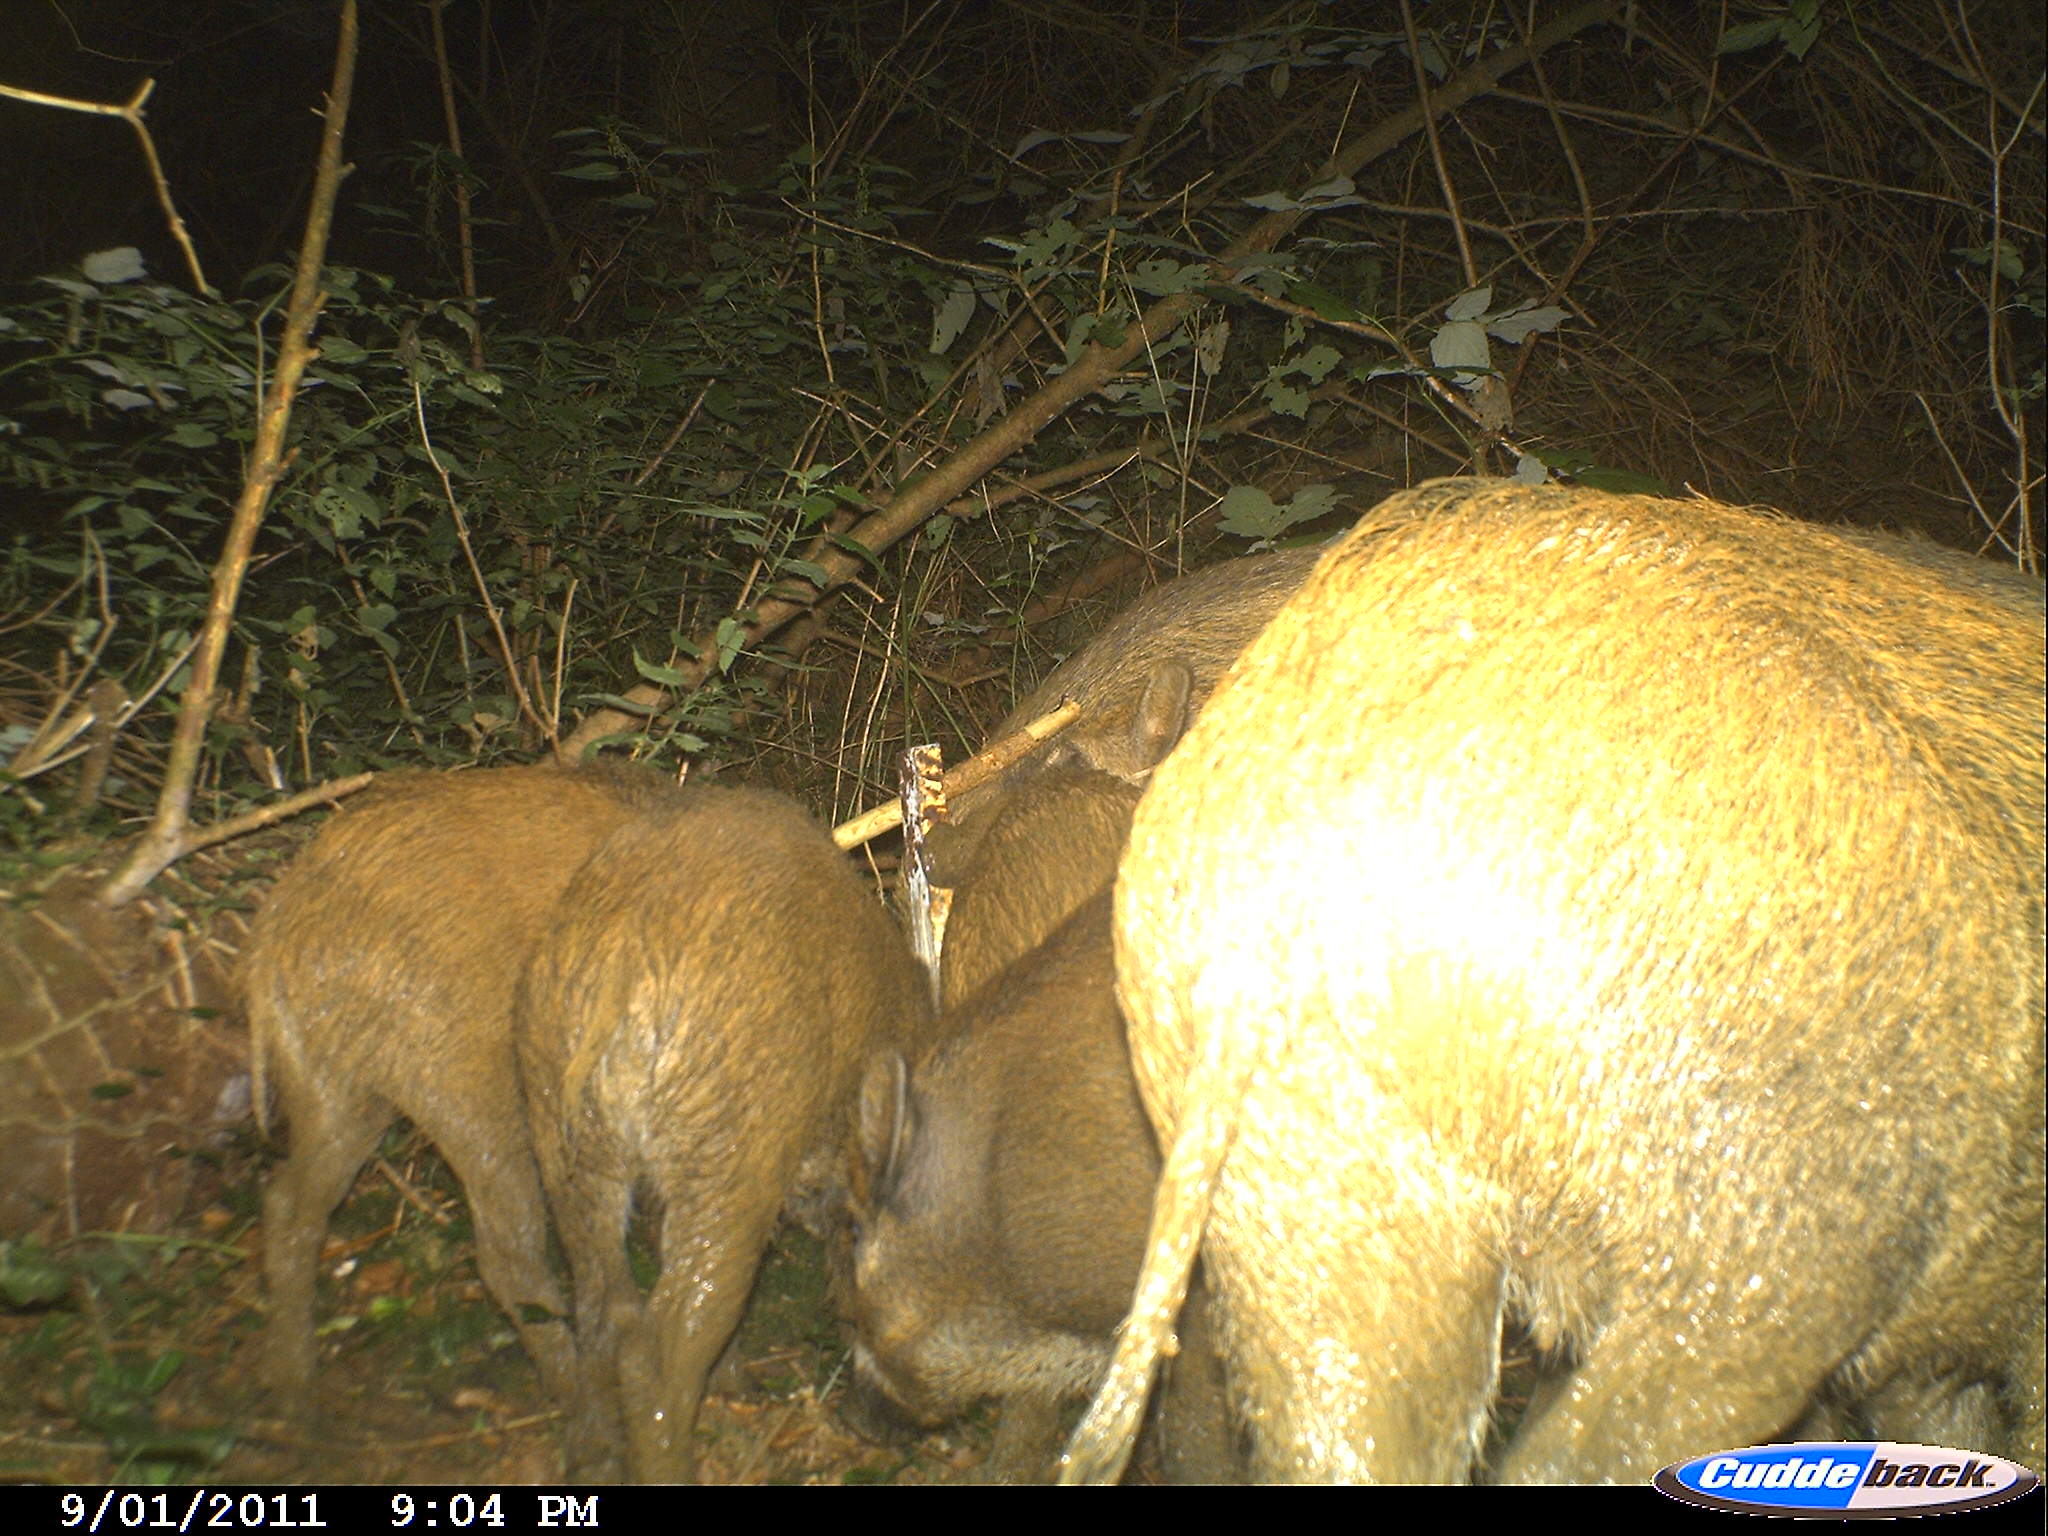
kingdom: Animalia
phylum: Chordata
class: Mammalia
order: Artiodactyla
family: Suidae
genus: Sus
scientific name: Sus scrofa
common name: Wild boar
